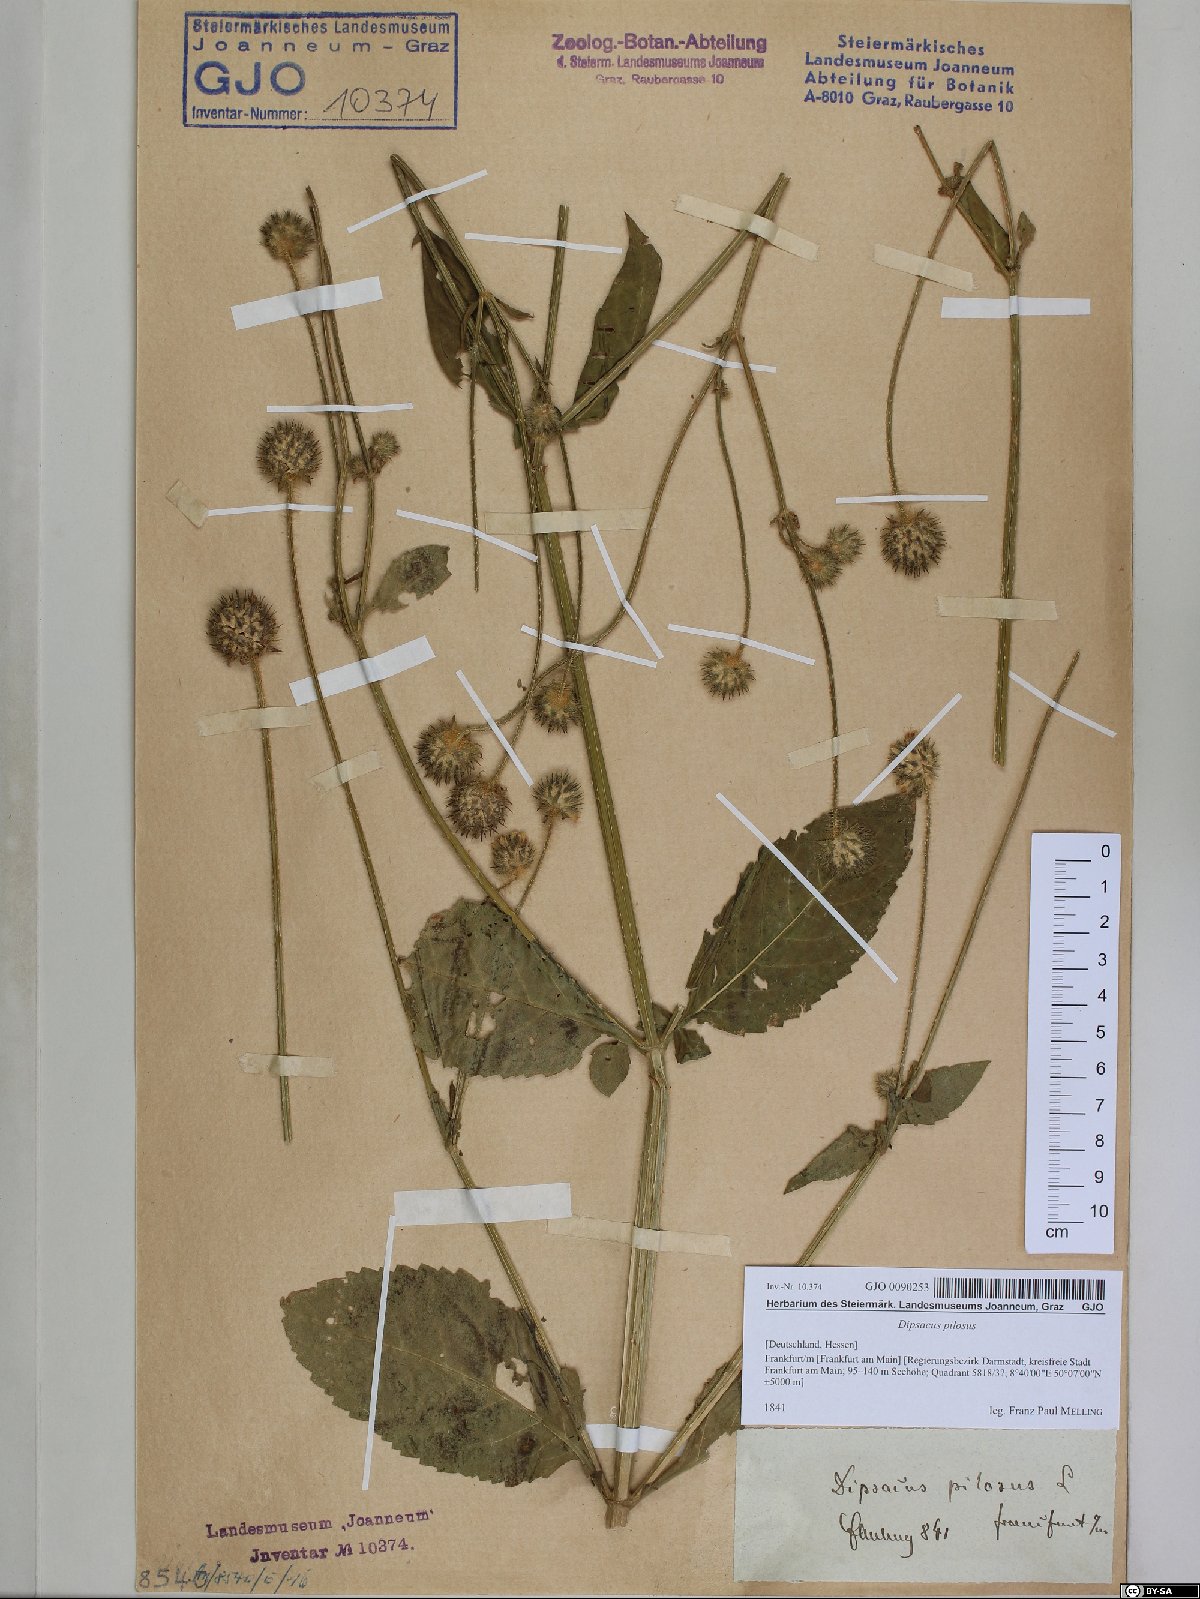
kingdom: Plantae
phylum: Tracheophyta
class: Magnoliopsida
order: Dipsacales
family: Caprifoliaceae
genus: Dipsacus
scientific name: Dipsacus pilosus
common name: Small teasel
